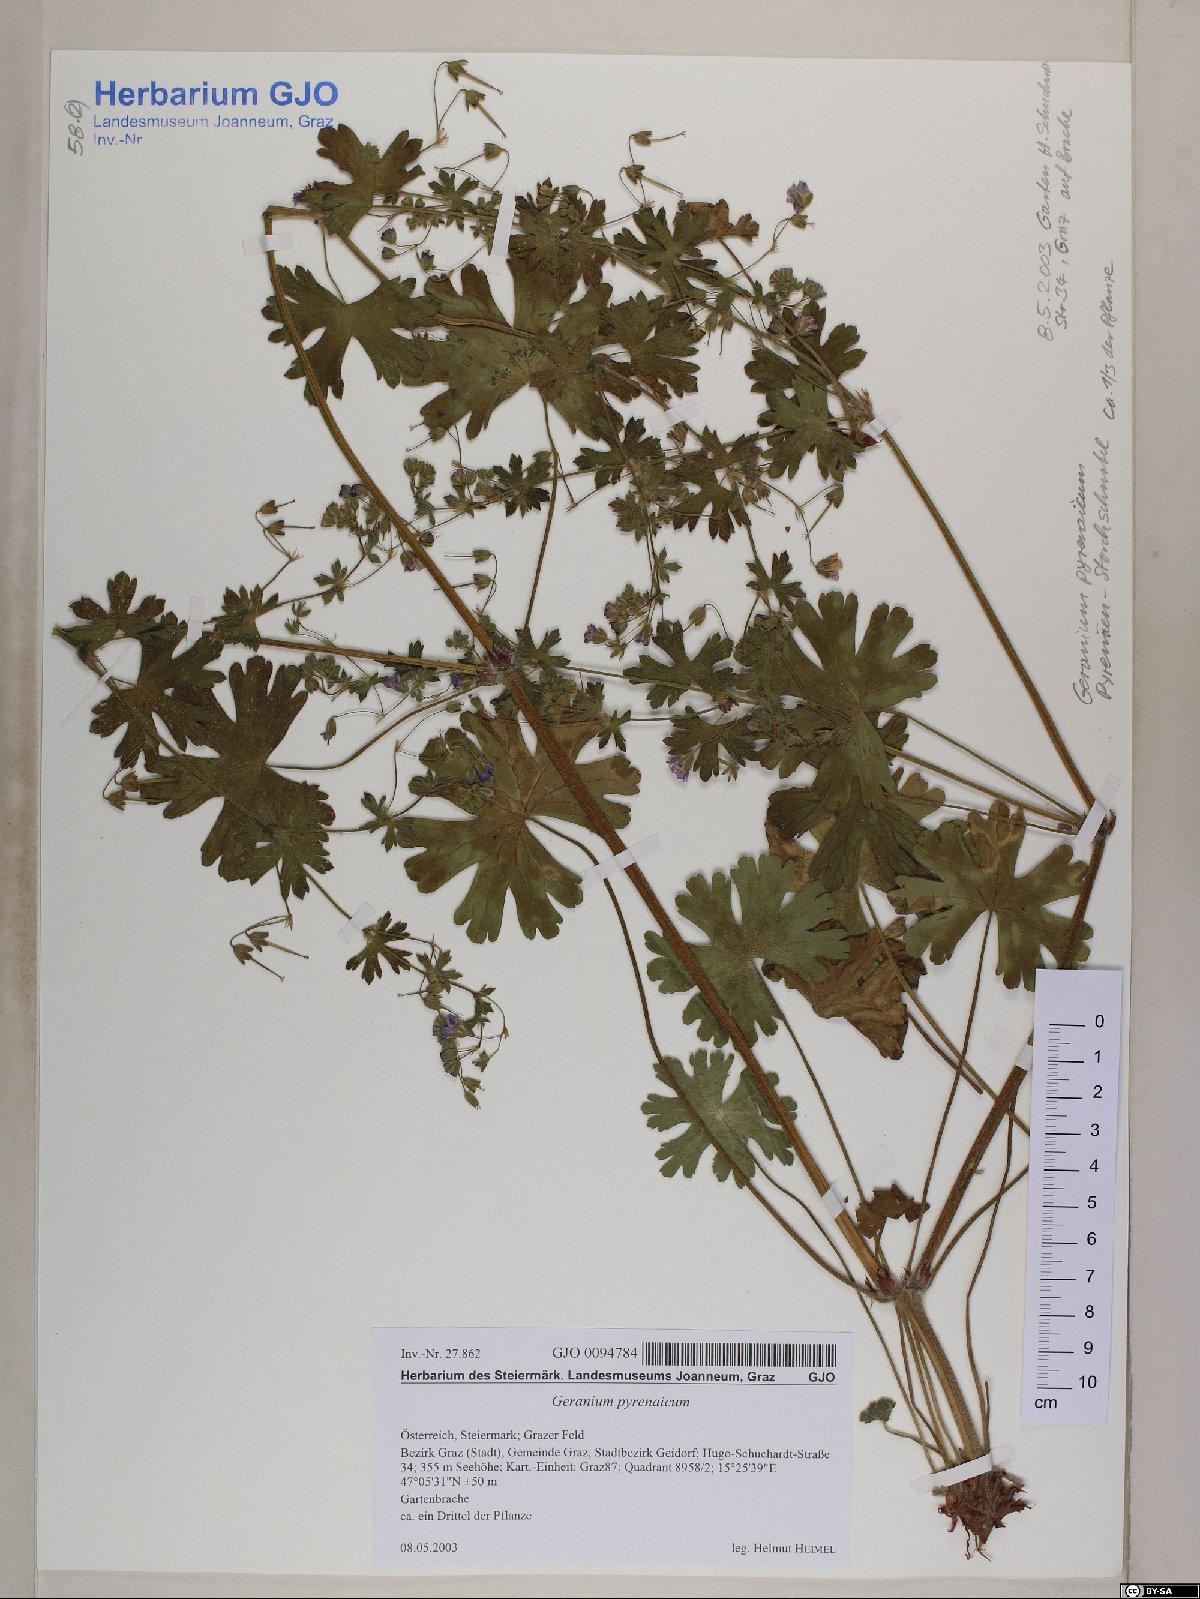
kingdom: Plantae
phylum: Tracheophyta
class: Magnoliopsida
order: Geraniales
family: Geraniaceae
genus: Geranium
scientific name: Geranium pyrenaicum
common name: Hedgerow crane's-bill
